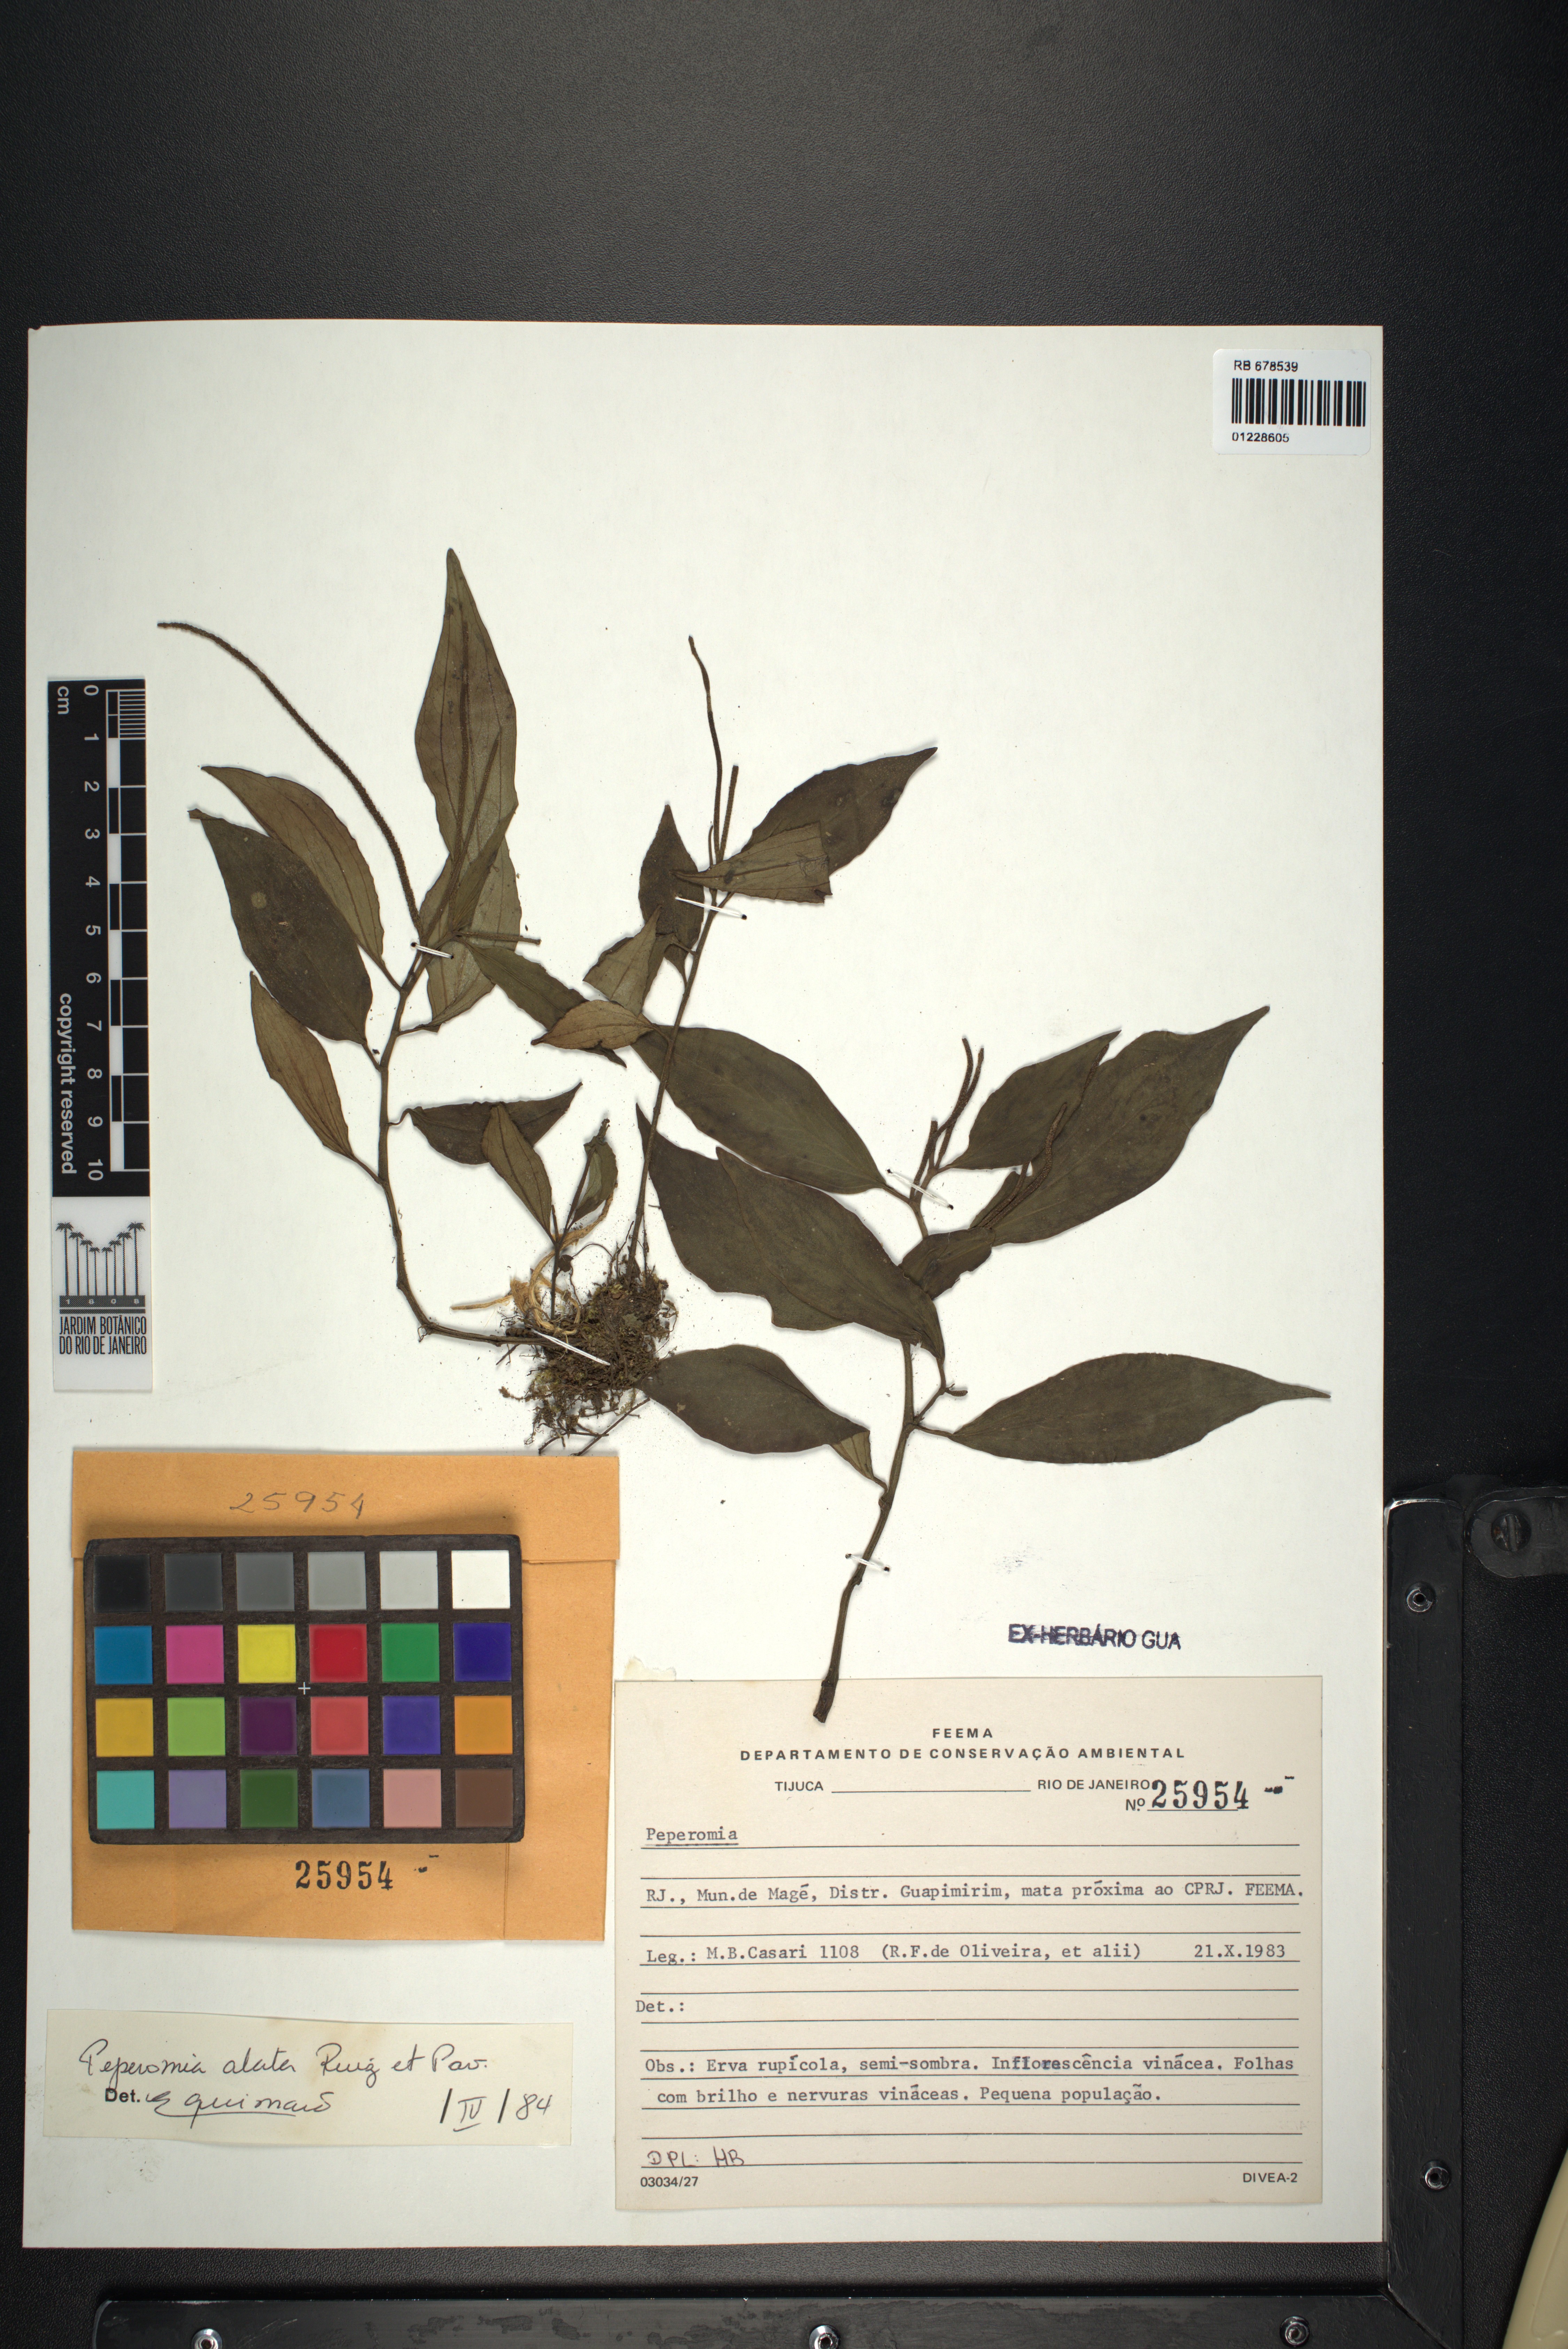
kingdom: Plantae
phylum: Tracheophyta
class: Magnoliopsida
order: Piperales
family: Piperaceae
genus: Peperomia
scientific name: Peperomia alata
